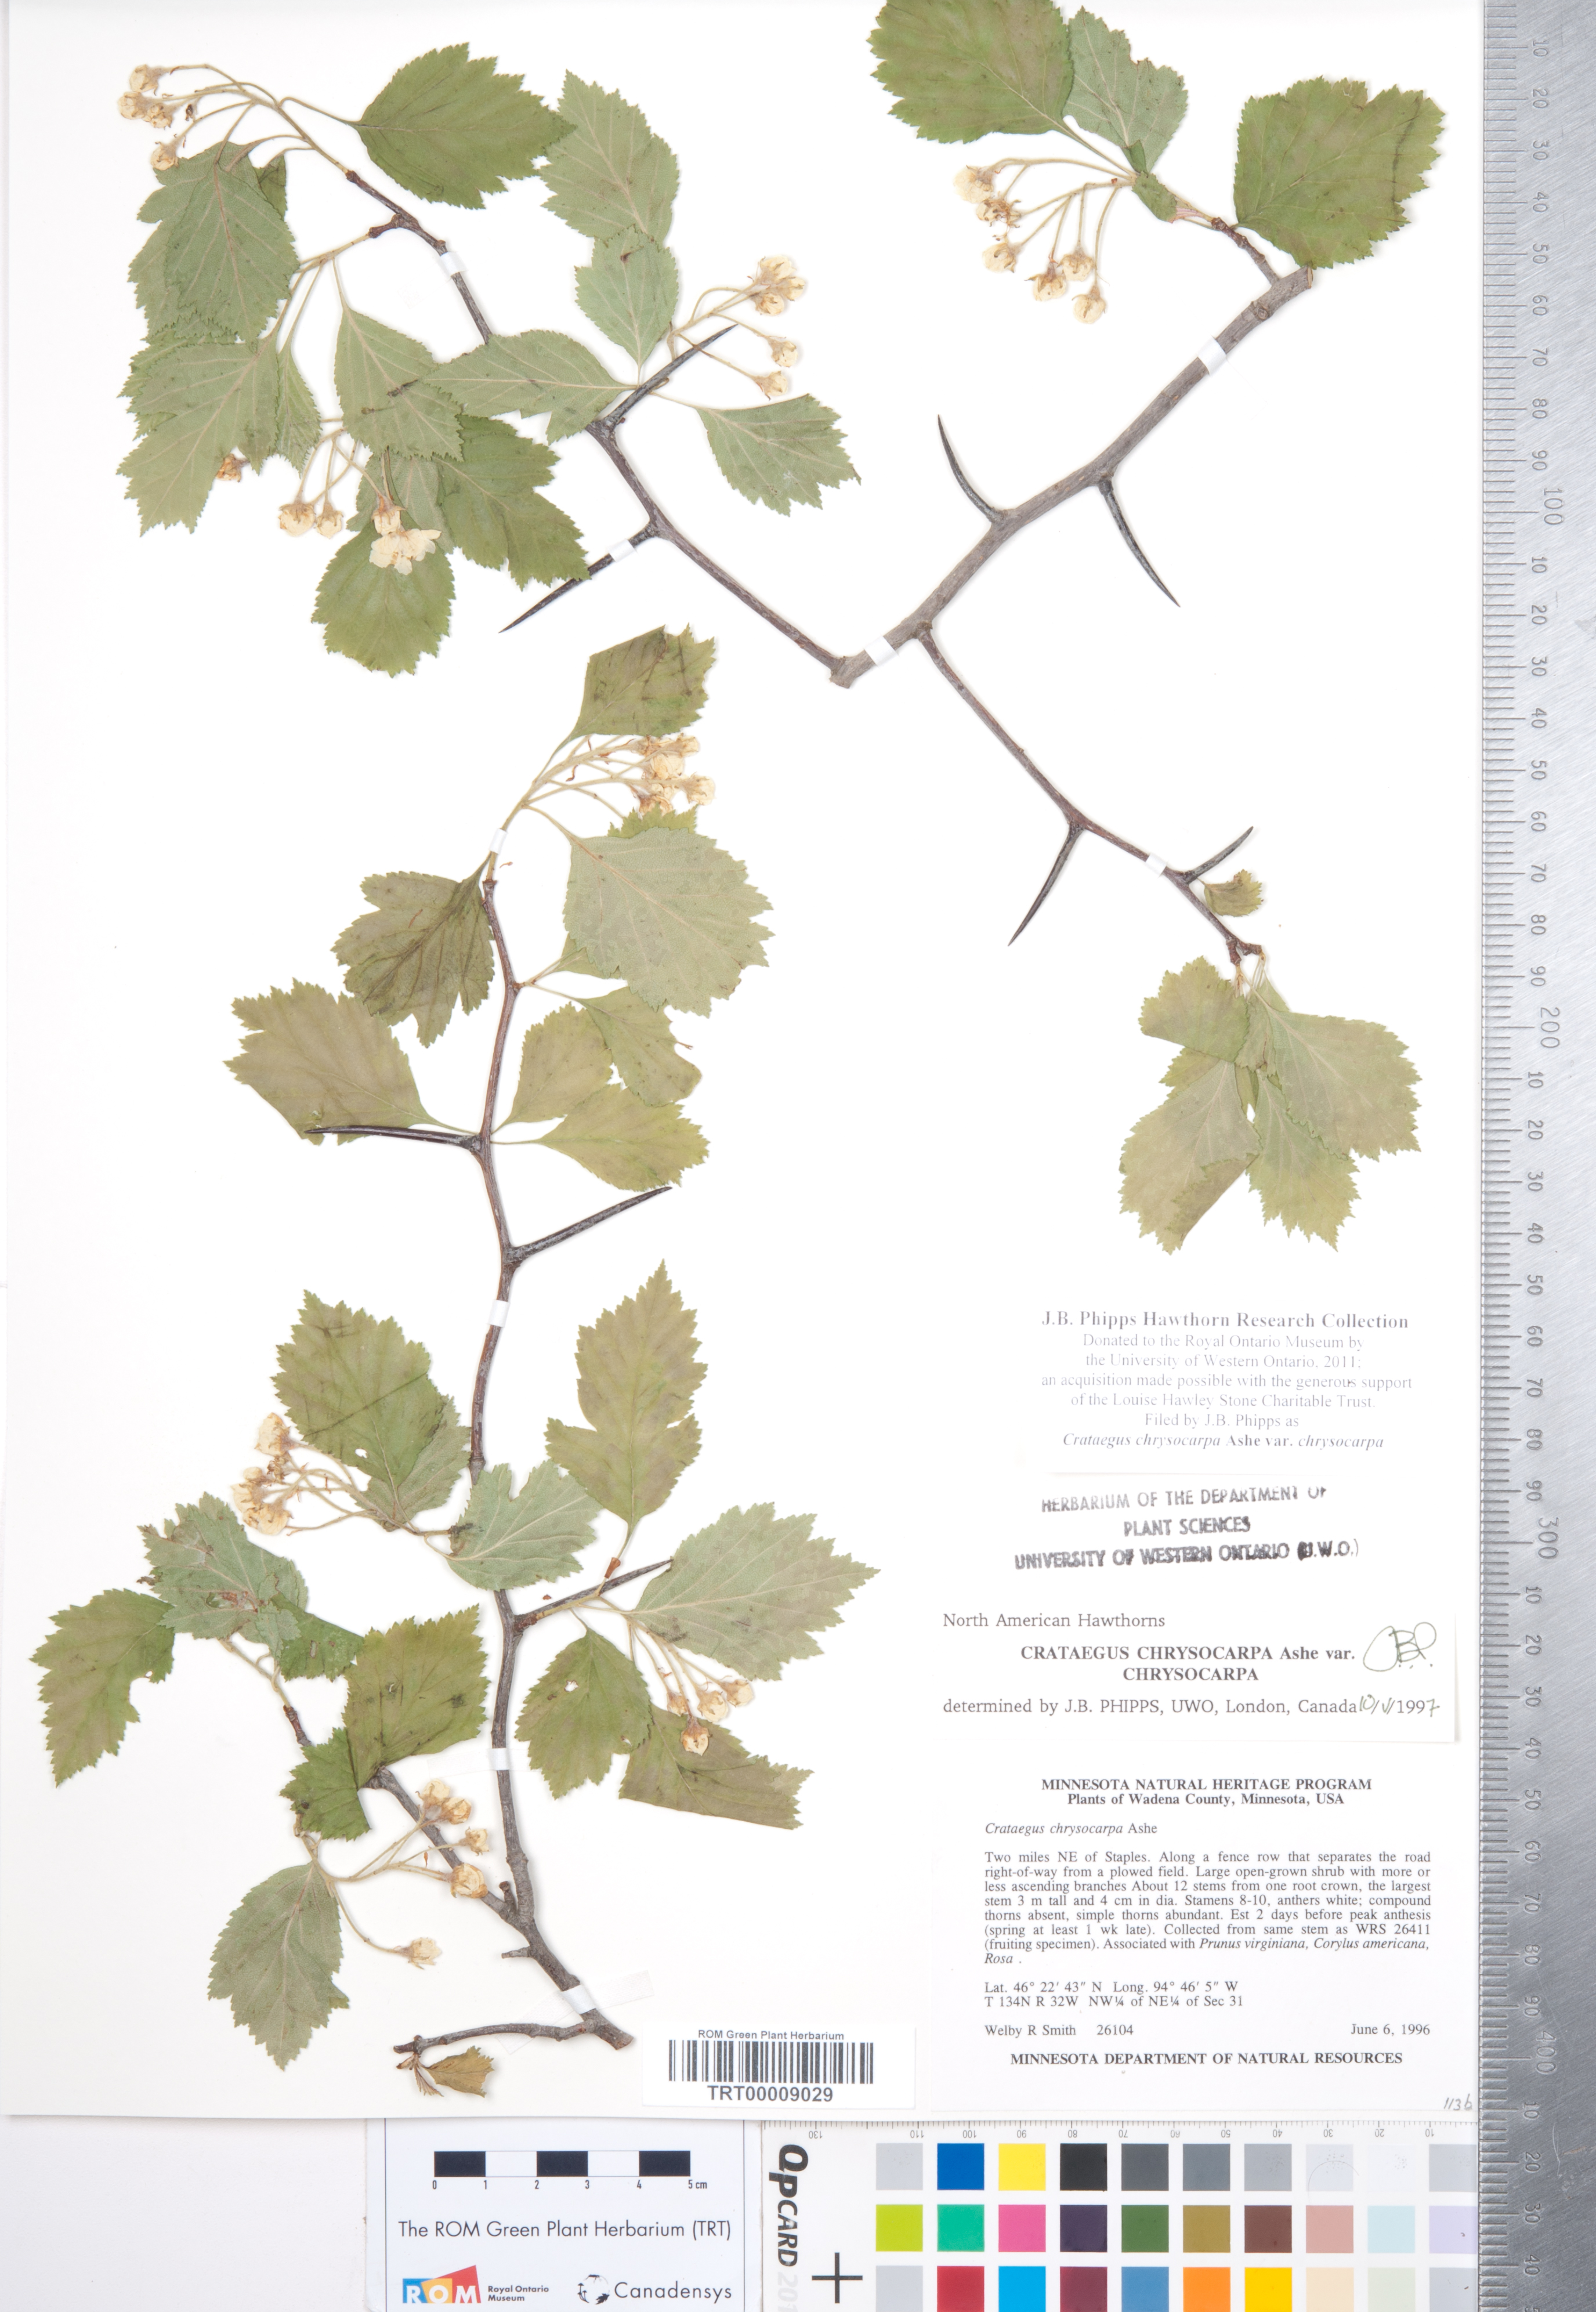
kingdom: Plantae
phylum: Tracheophyta
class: Magnoliopsida
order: Rosales
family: Rosaceae
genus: Crataegus
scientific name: Crataegus chrysocarpa
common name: Fire-berry hawthorn
